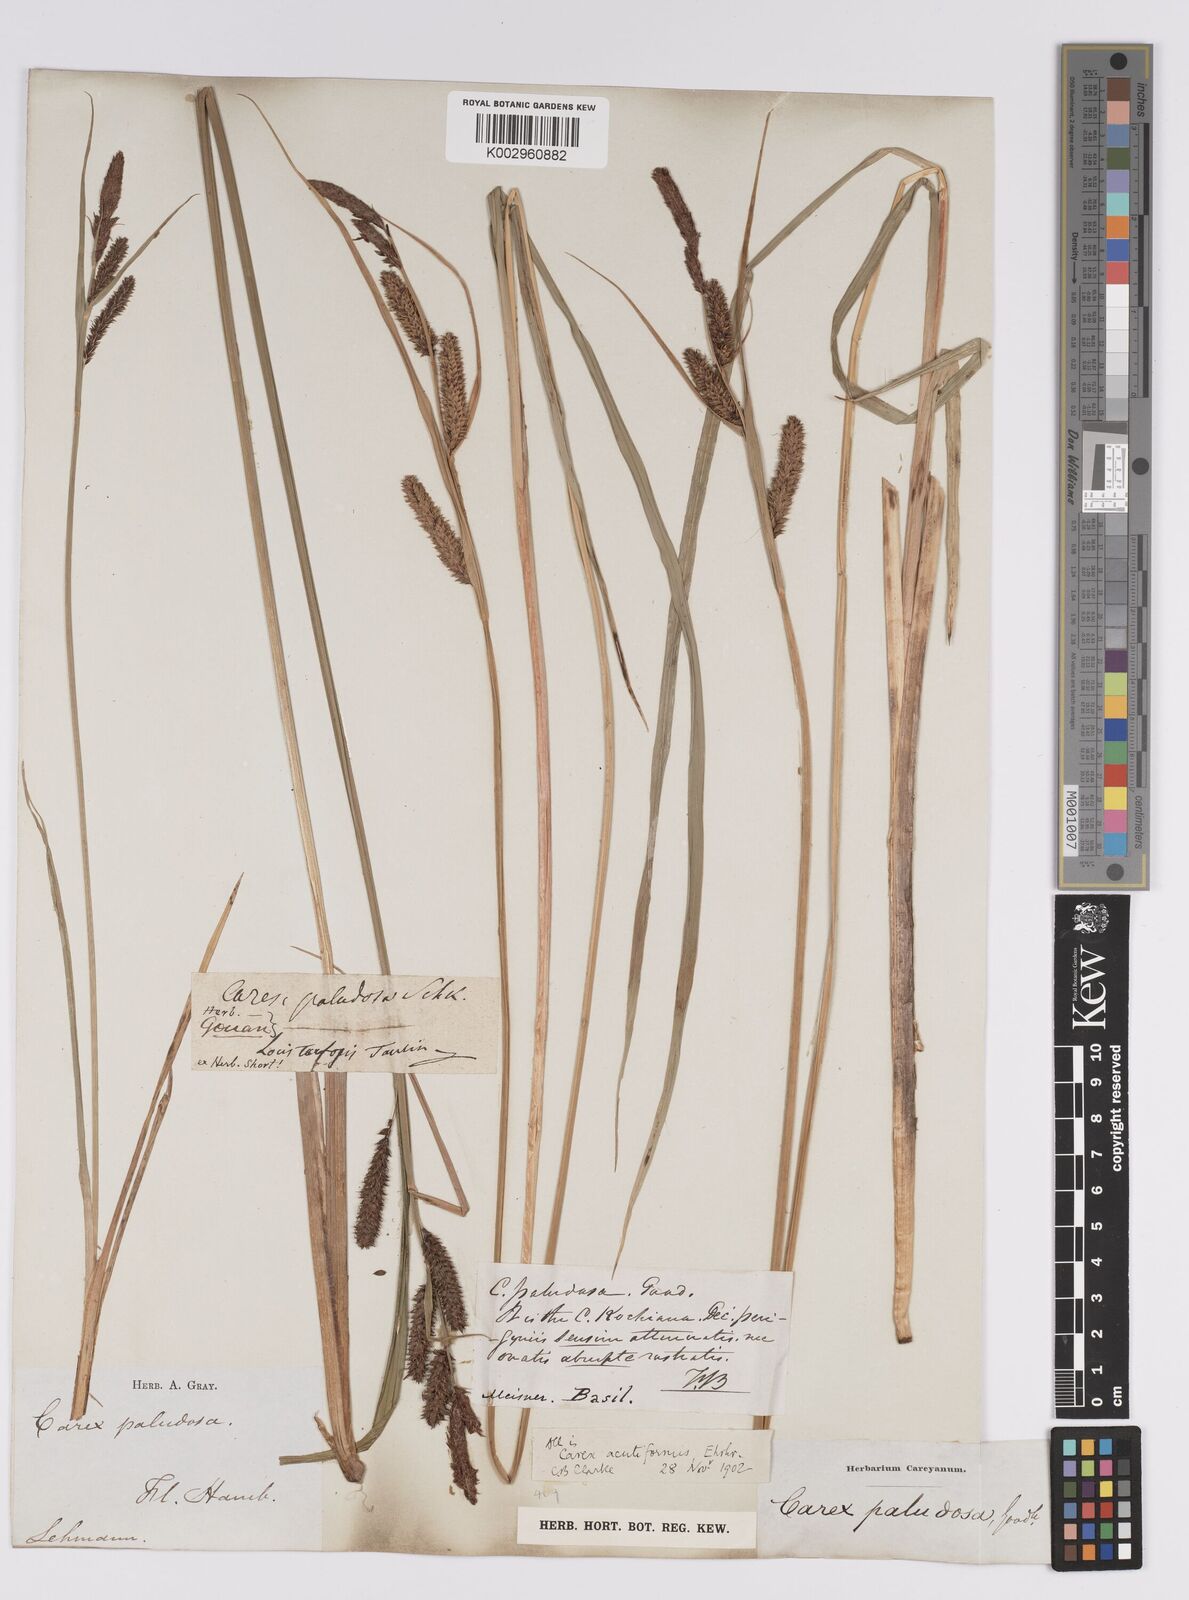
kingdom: Plantae
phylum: Tracheophyta
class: Liliopsida
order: Poales
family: Cyperaceae
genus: Carex
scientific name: Carex acutiformis
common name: Lesser pond-sedge
